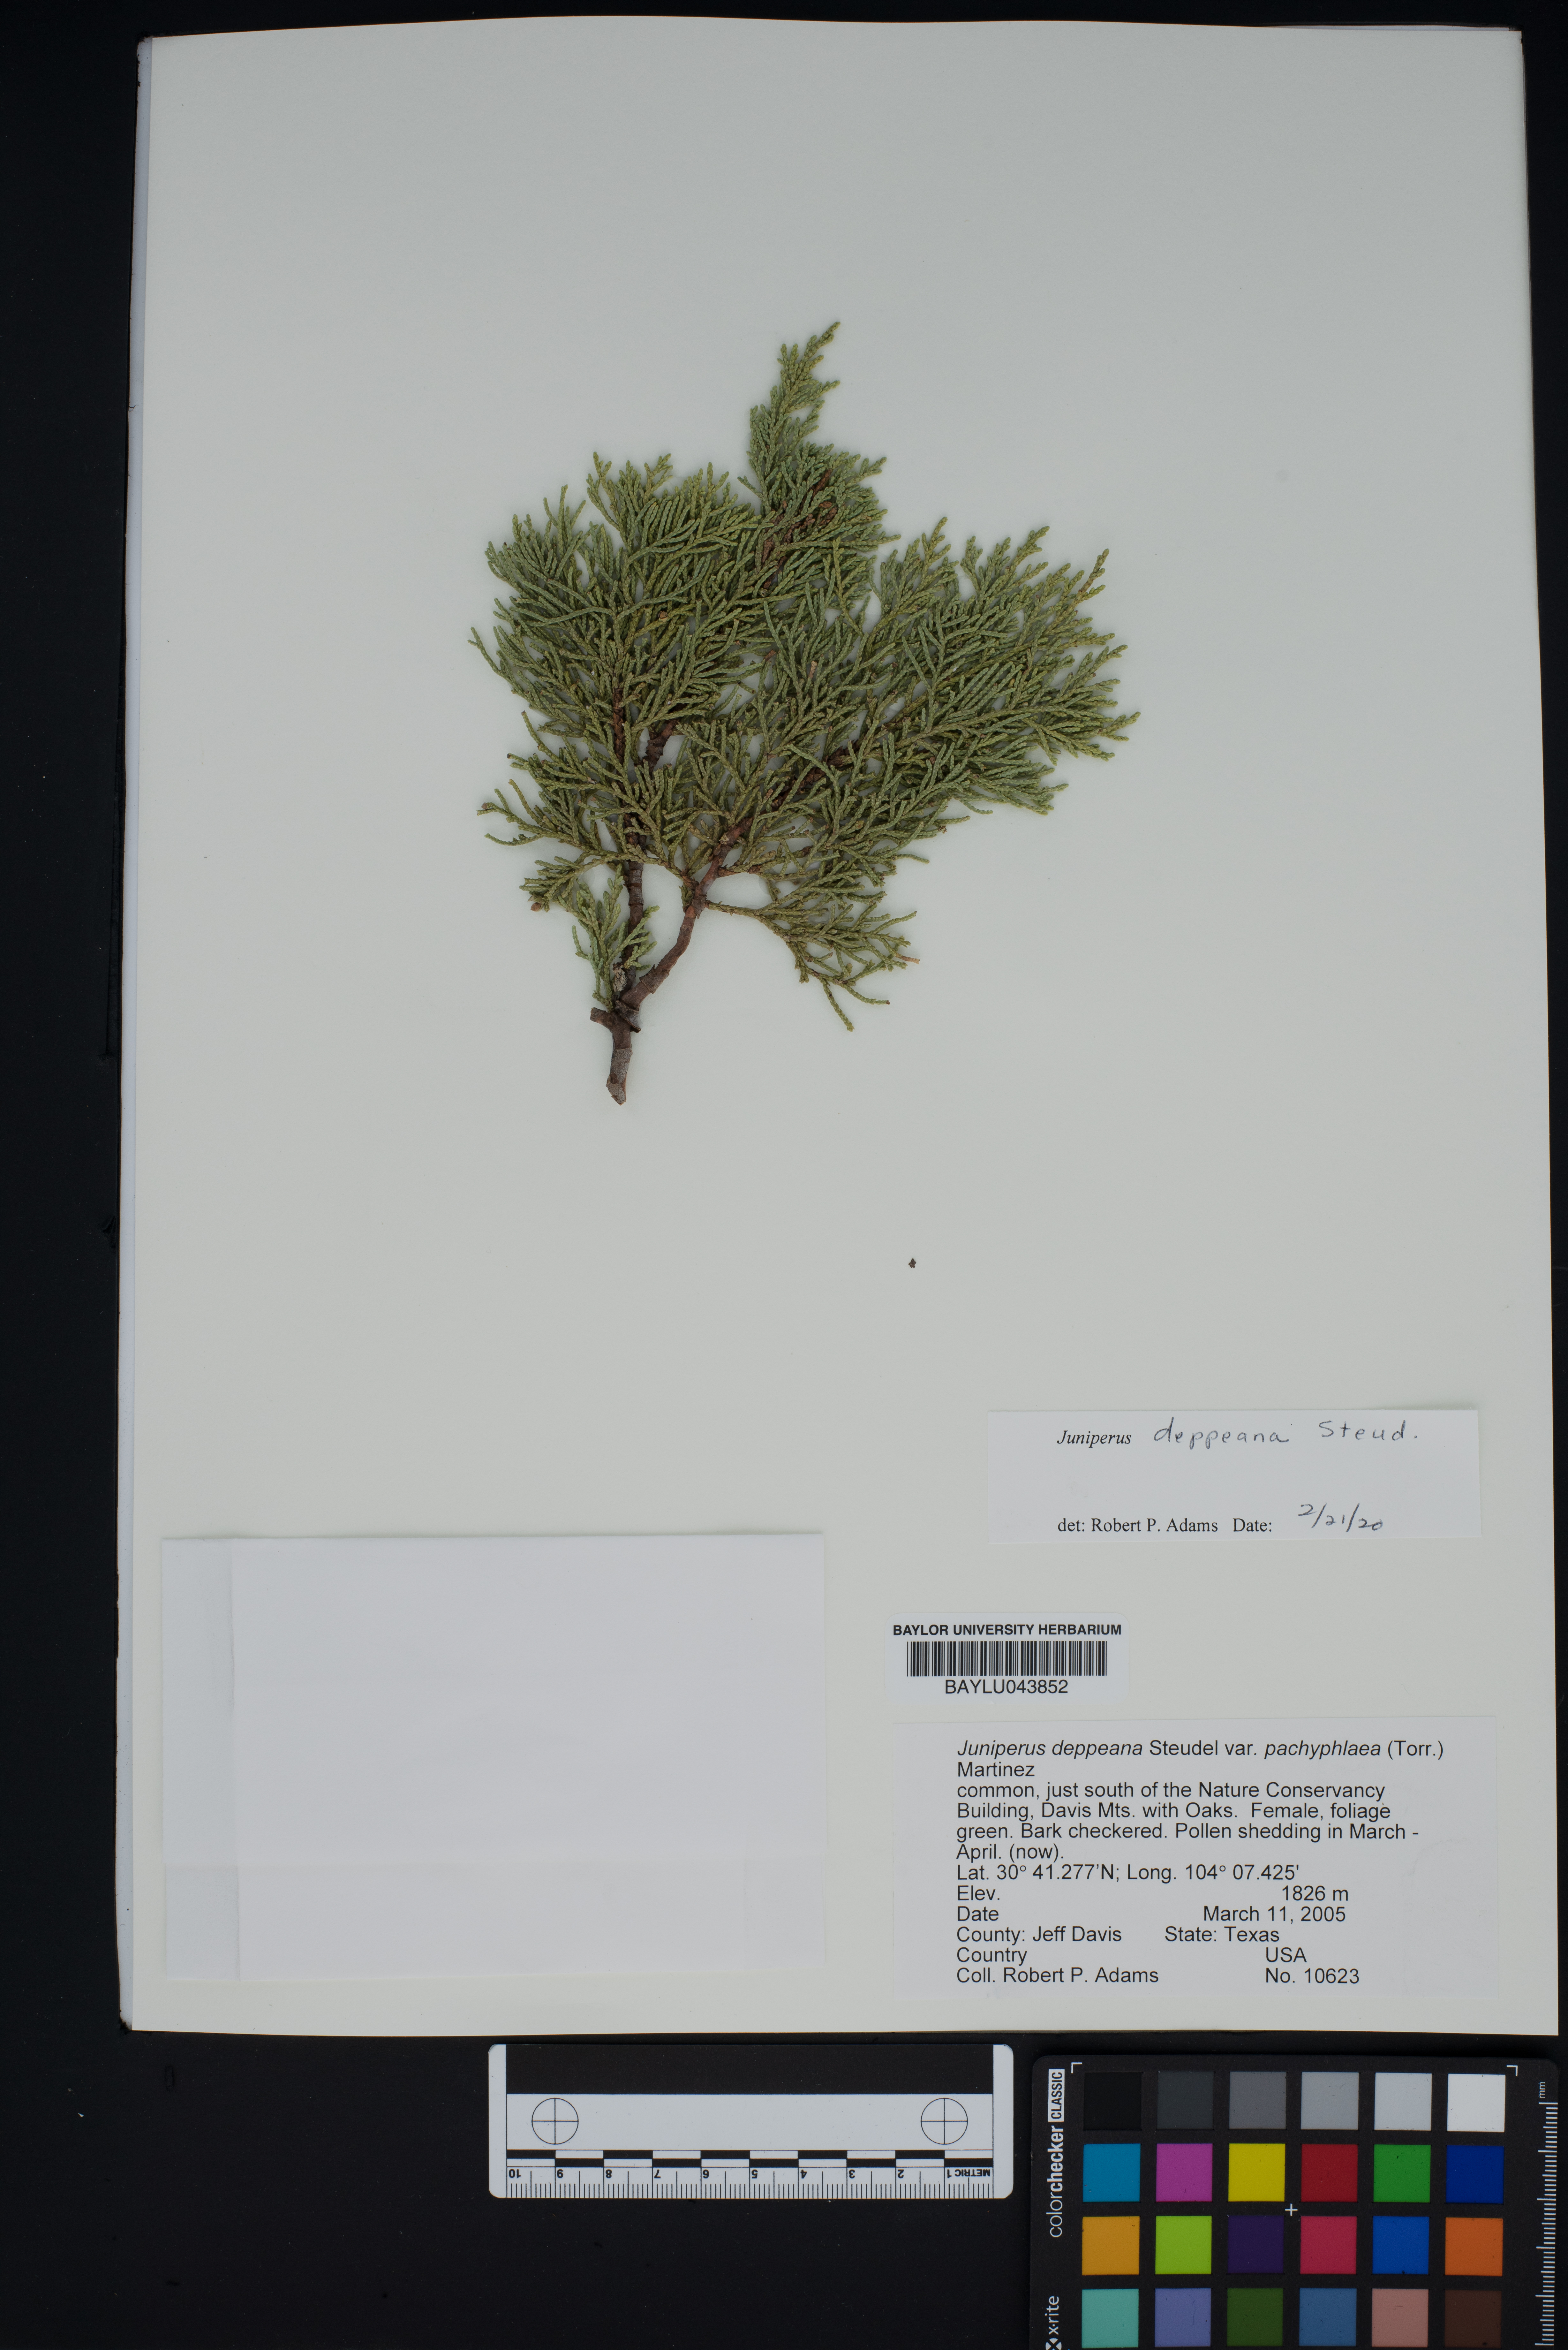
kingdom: Plantae
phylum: Tracheophyta
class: Pinopsida
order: Pinales
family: Cupressaceae
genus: Juniperus
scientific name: Juniperus deppeana
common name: Alligator juniper
